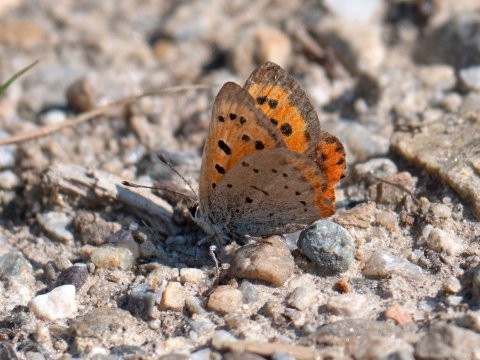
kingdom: Animalia
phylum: Arthropoda
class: Insecta
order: Lepidoptera
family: Lycaenidae
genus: Lycaena
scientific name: Lycaena phlaeas
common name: American Copper
